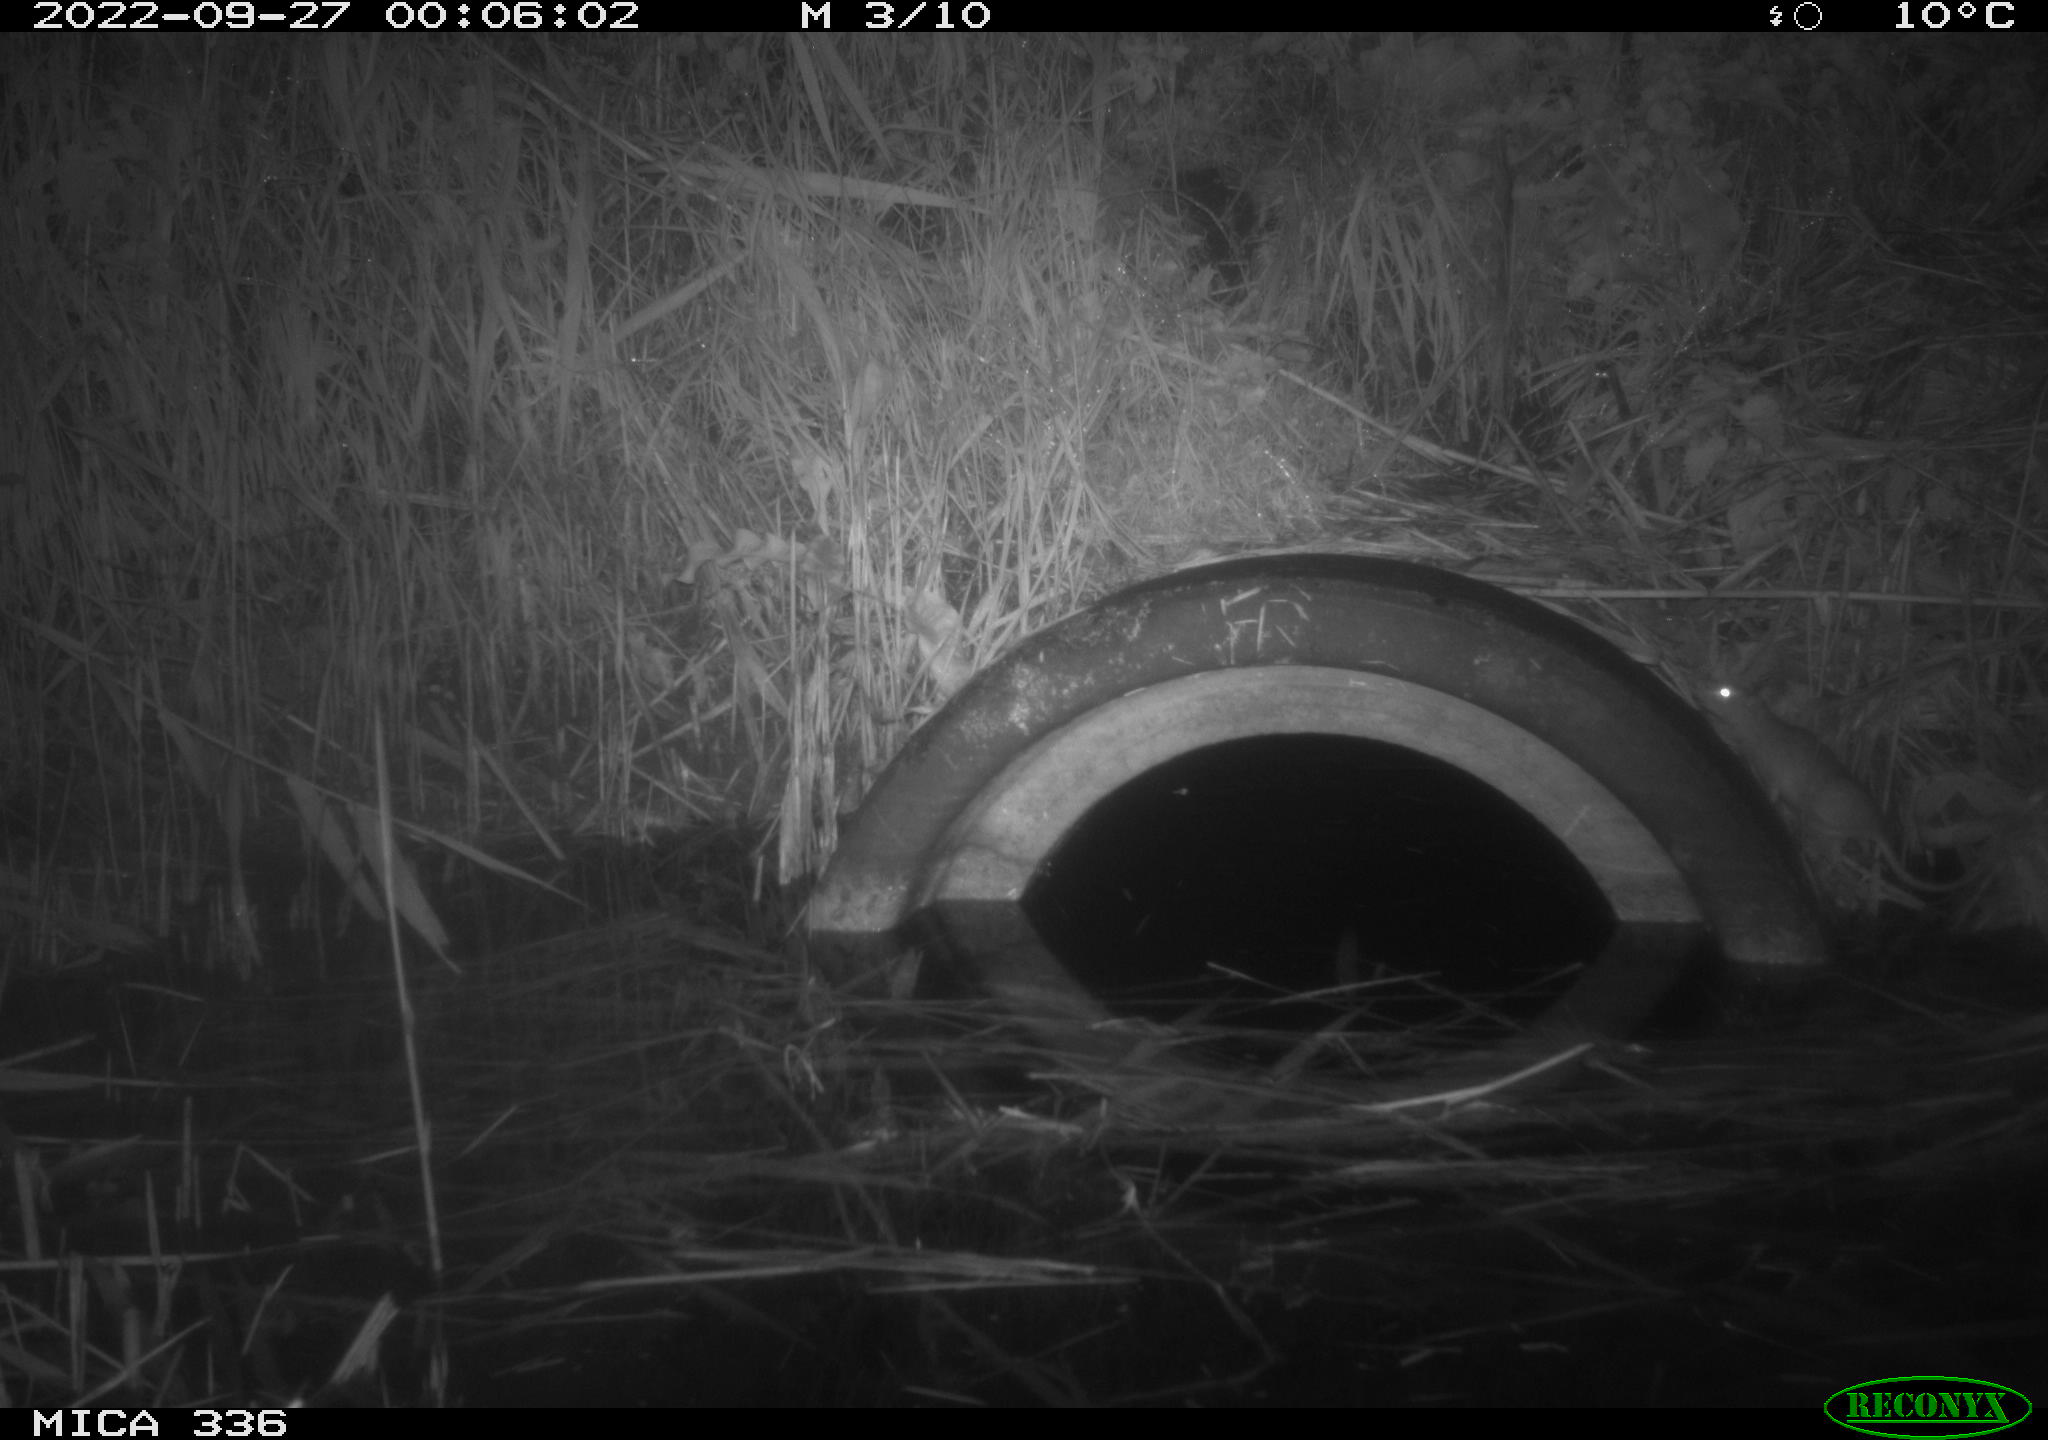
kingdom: Animalia
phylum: Chordata
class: Mammalia
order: Rodentia
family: Muridae
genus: Rattus
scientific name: Rattus norvegicus
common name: Brown rat
